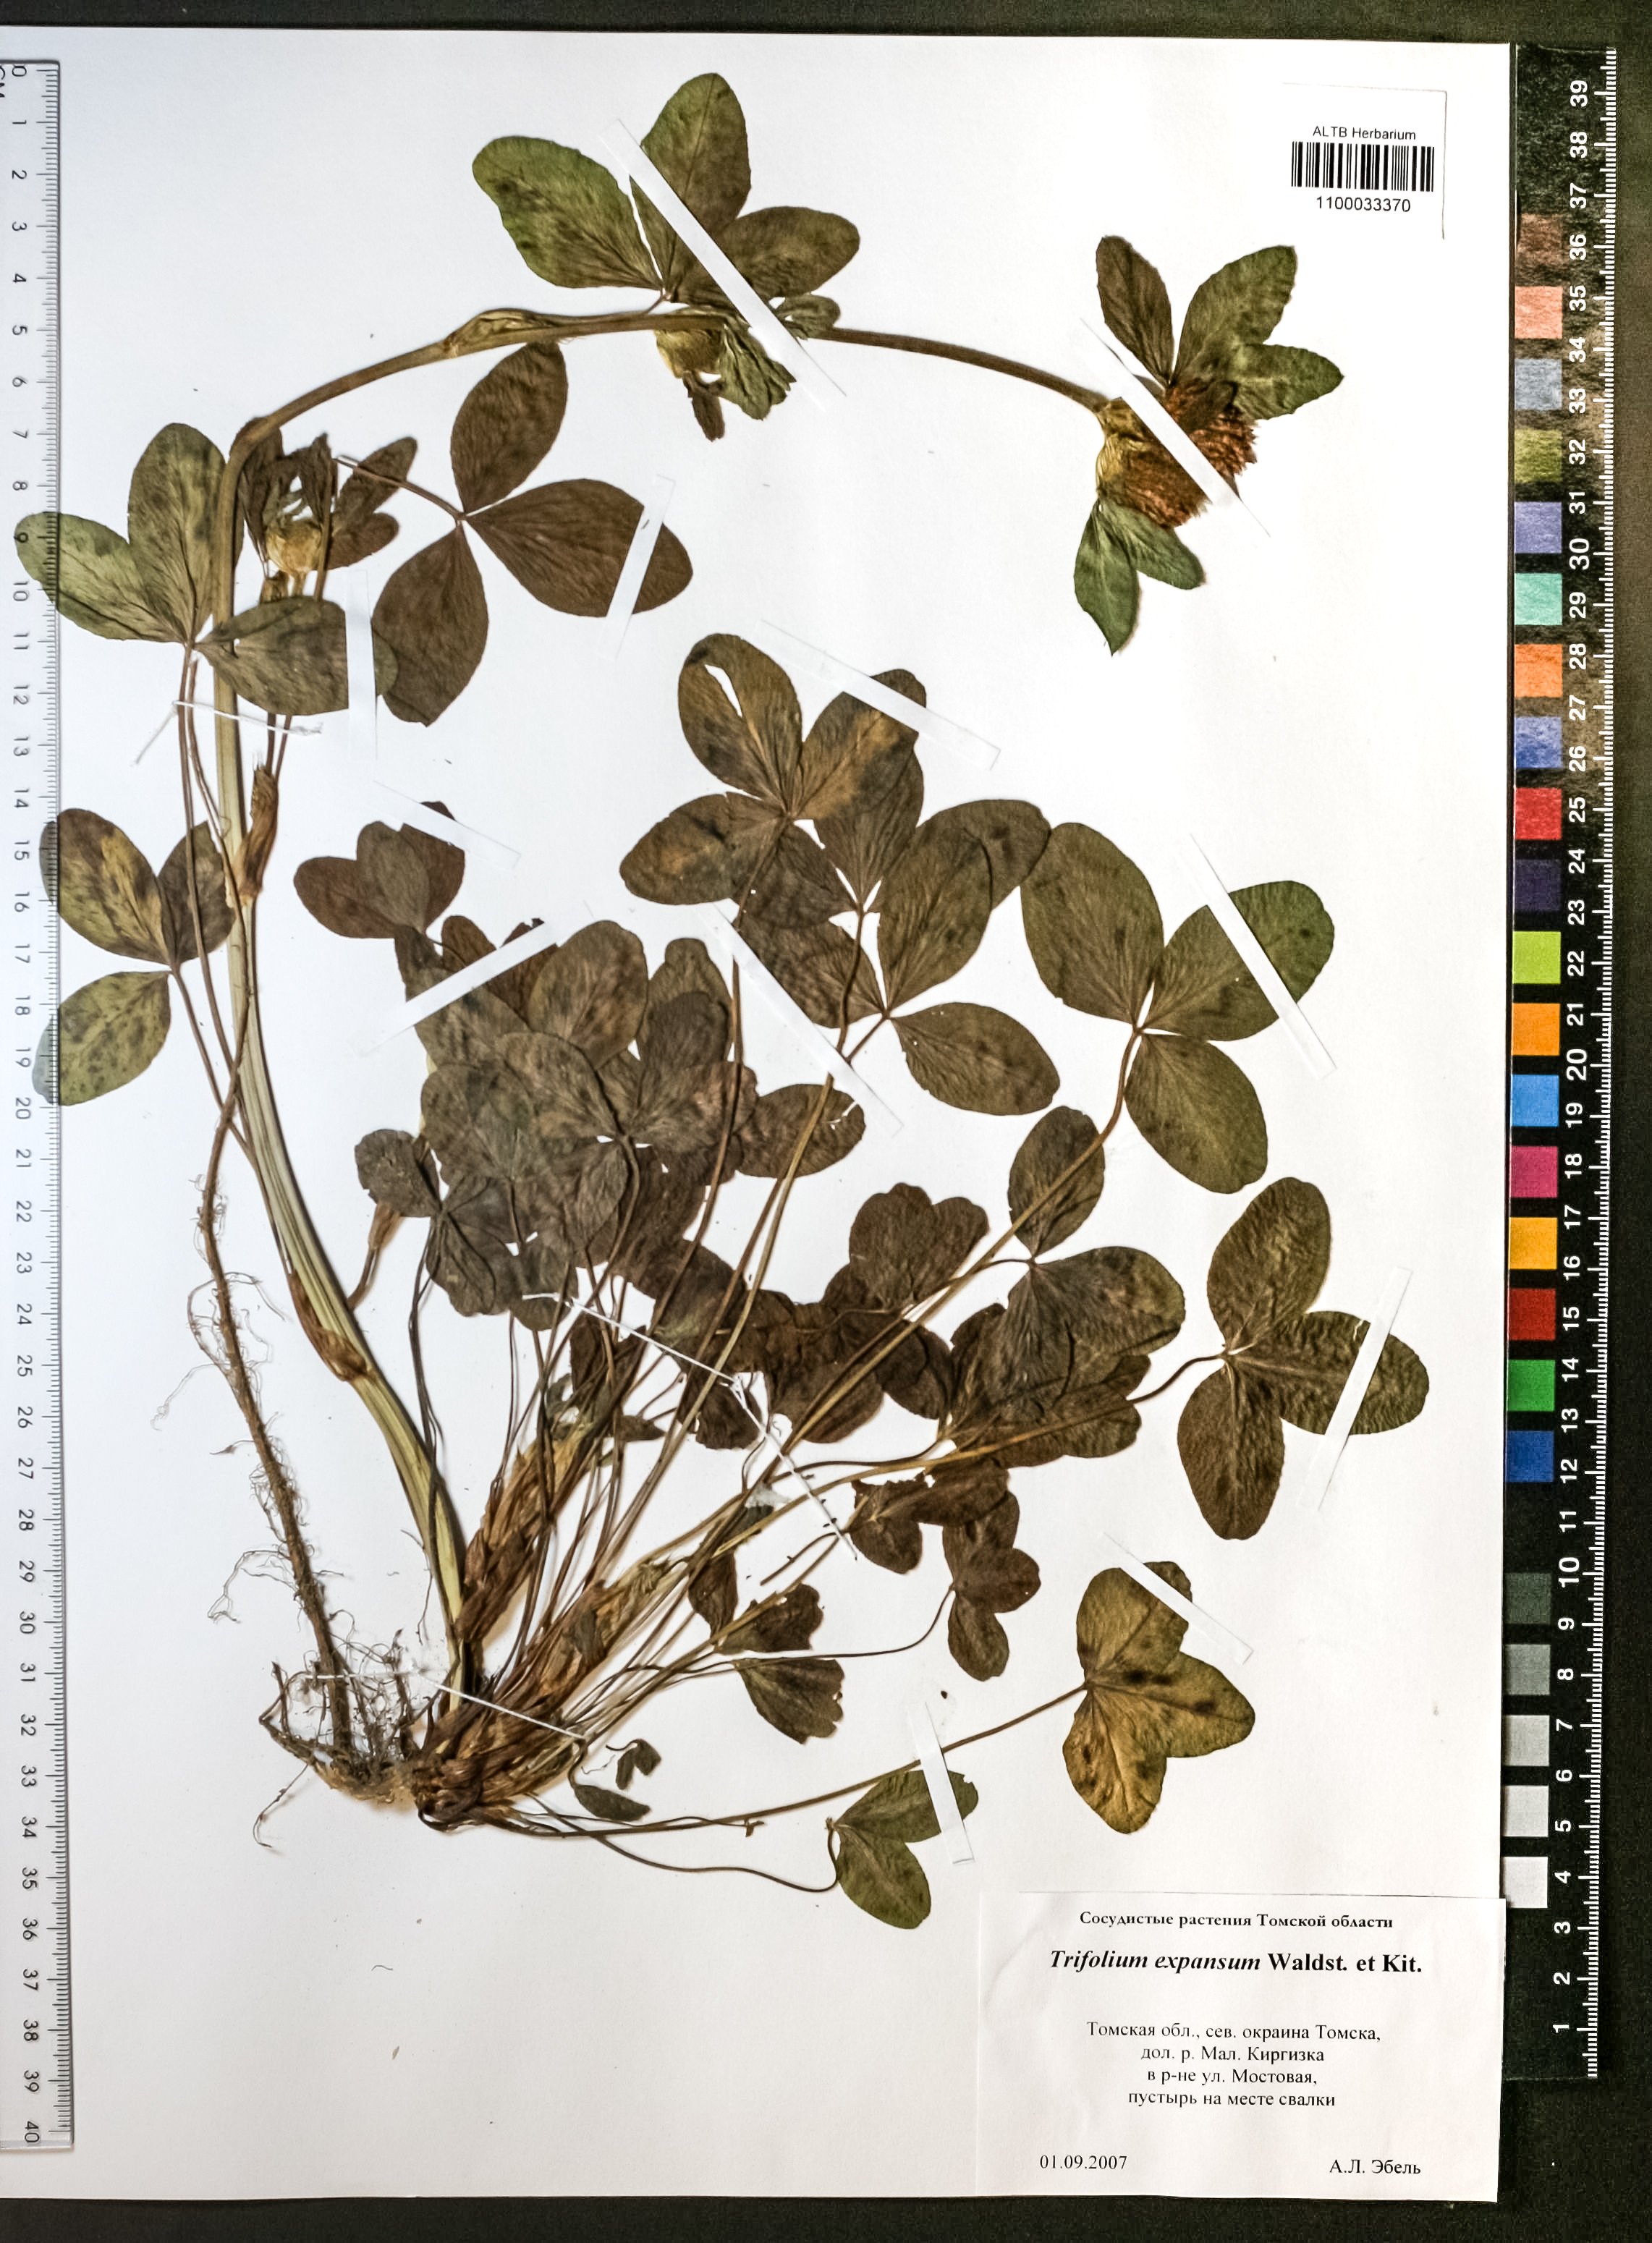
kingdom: Plantae
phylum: Tracheophyta
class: Magnoliopsida
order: Fabales
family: Fabaceae
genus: Trifolium
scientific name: Trifolium pratense
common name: Red clover
